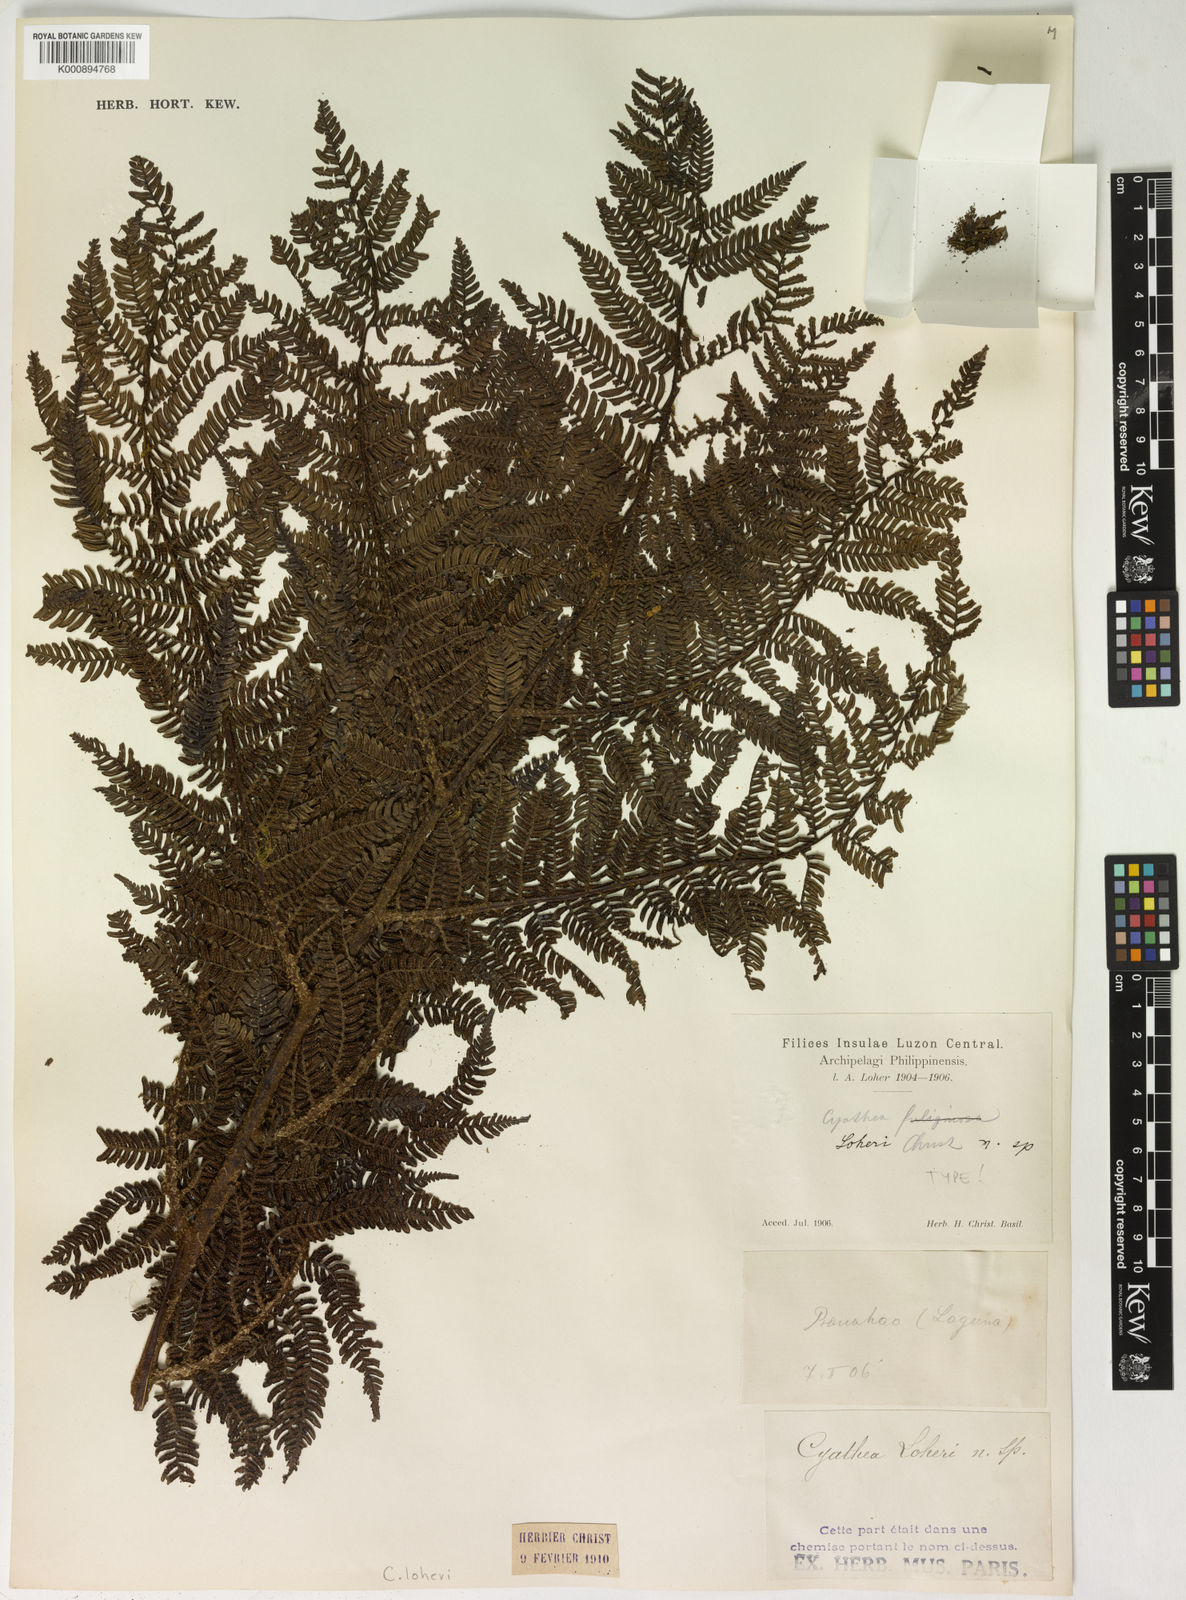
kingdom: Plantae
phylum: Tracheophyta
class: Polypodiopsida
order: Cyatheales
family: Cyatheaceae
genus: Alsophila
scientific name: Alsophila loheri
